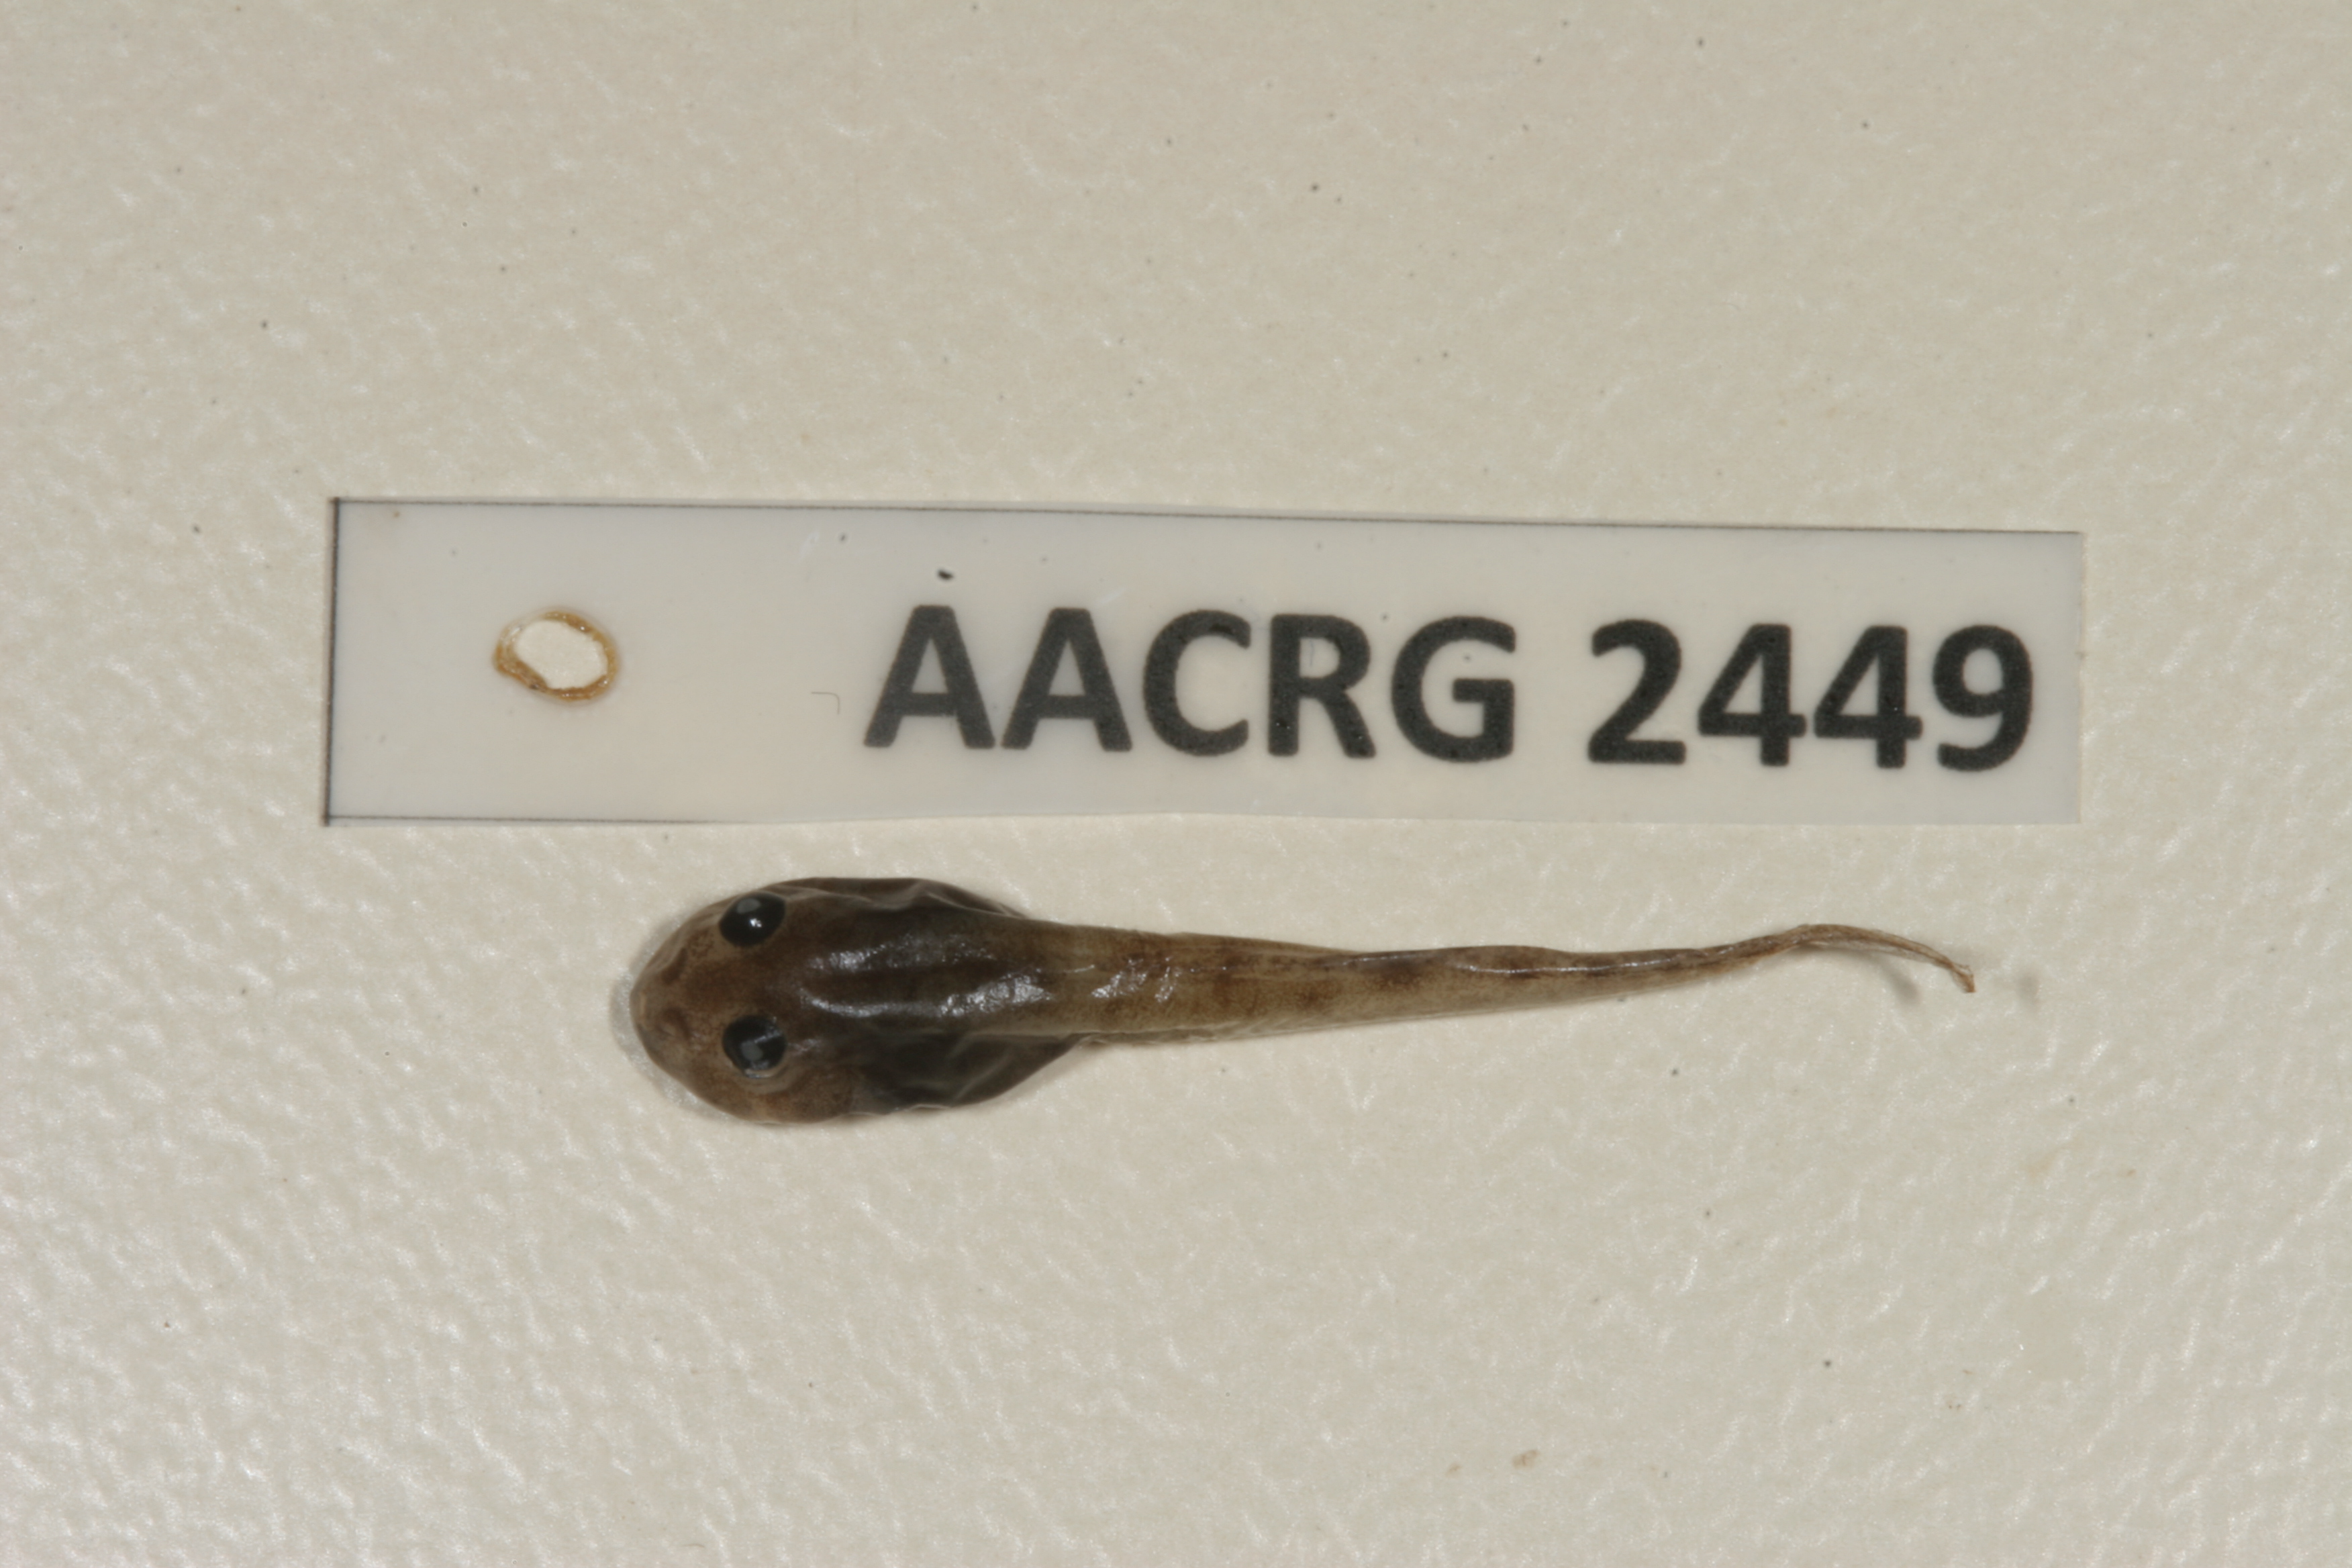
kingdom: Animalia
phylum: Chordata
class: Amphibia
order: Anura
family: Ptychadenidae
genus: Ptychadena
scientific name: Ptychadena oxyrhynchus
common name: Sharp-nosed ridged frog
